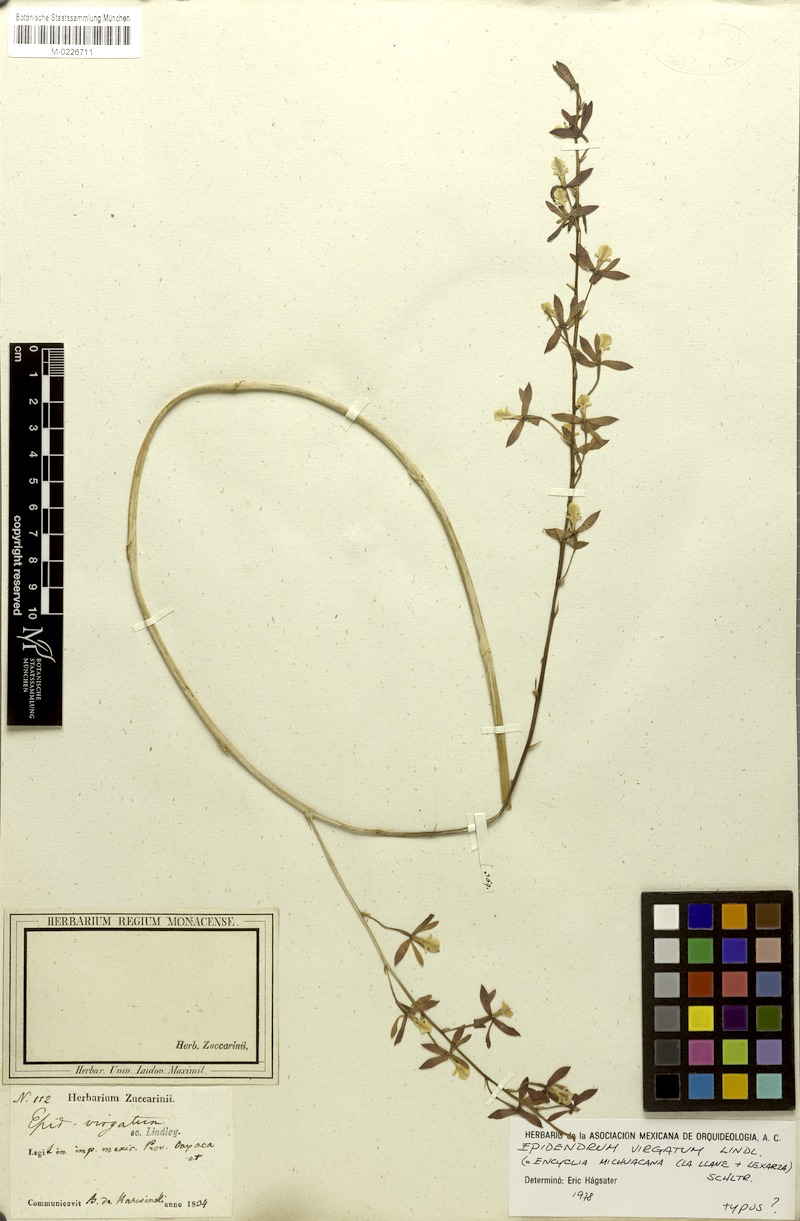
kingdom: Plantae
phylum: Tracheophyta
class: Liliopsida
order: Asparagales
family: Orchidaceae
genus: Prosthechea
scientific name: Prosthechea michuacana
